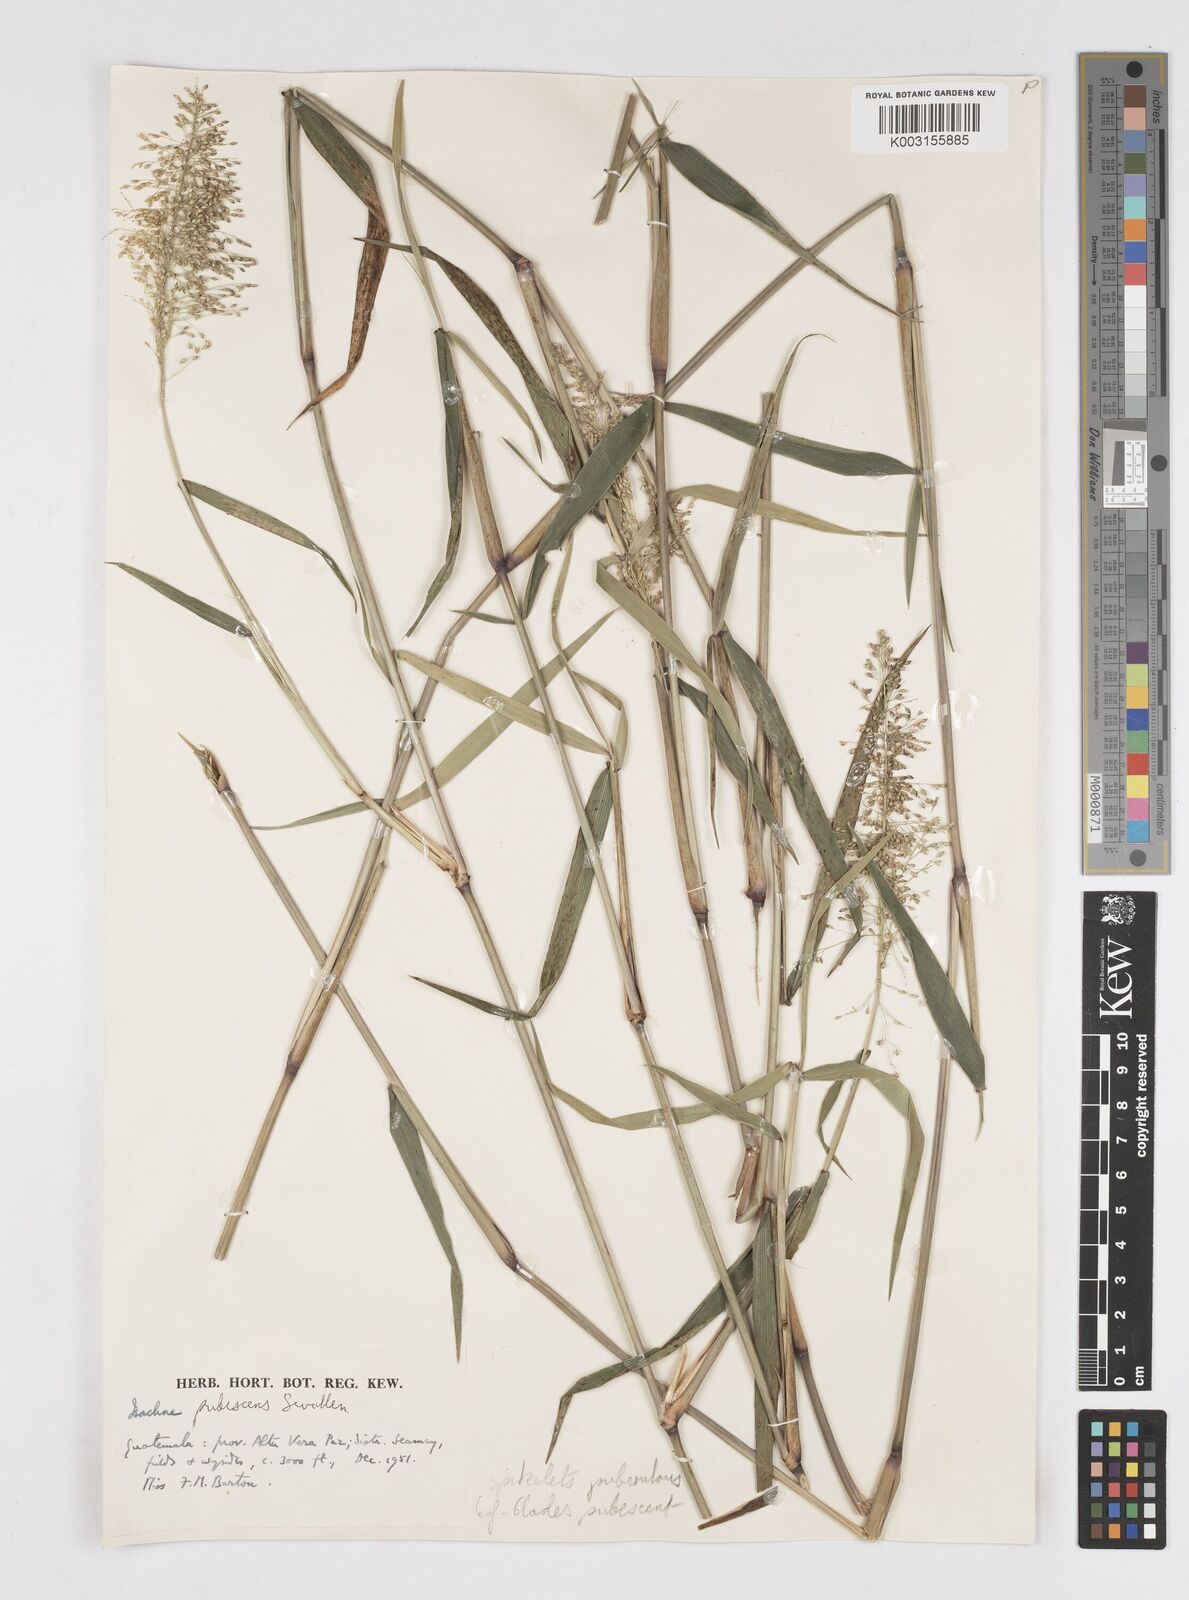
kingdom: Plantae
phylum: Tracheophyta
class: Liliopsida
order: Poales
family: Poaceae
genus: Isachne
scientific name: Isachne pubescens
